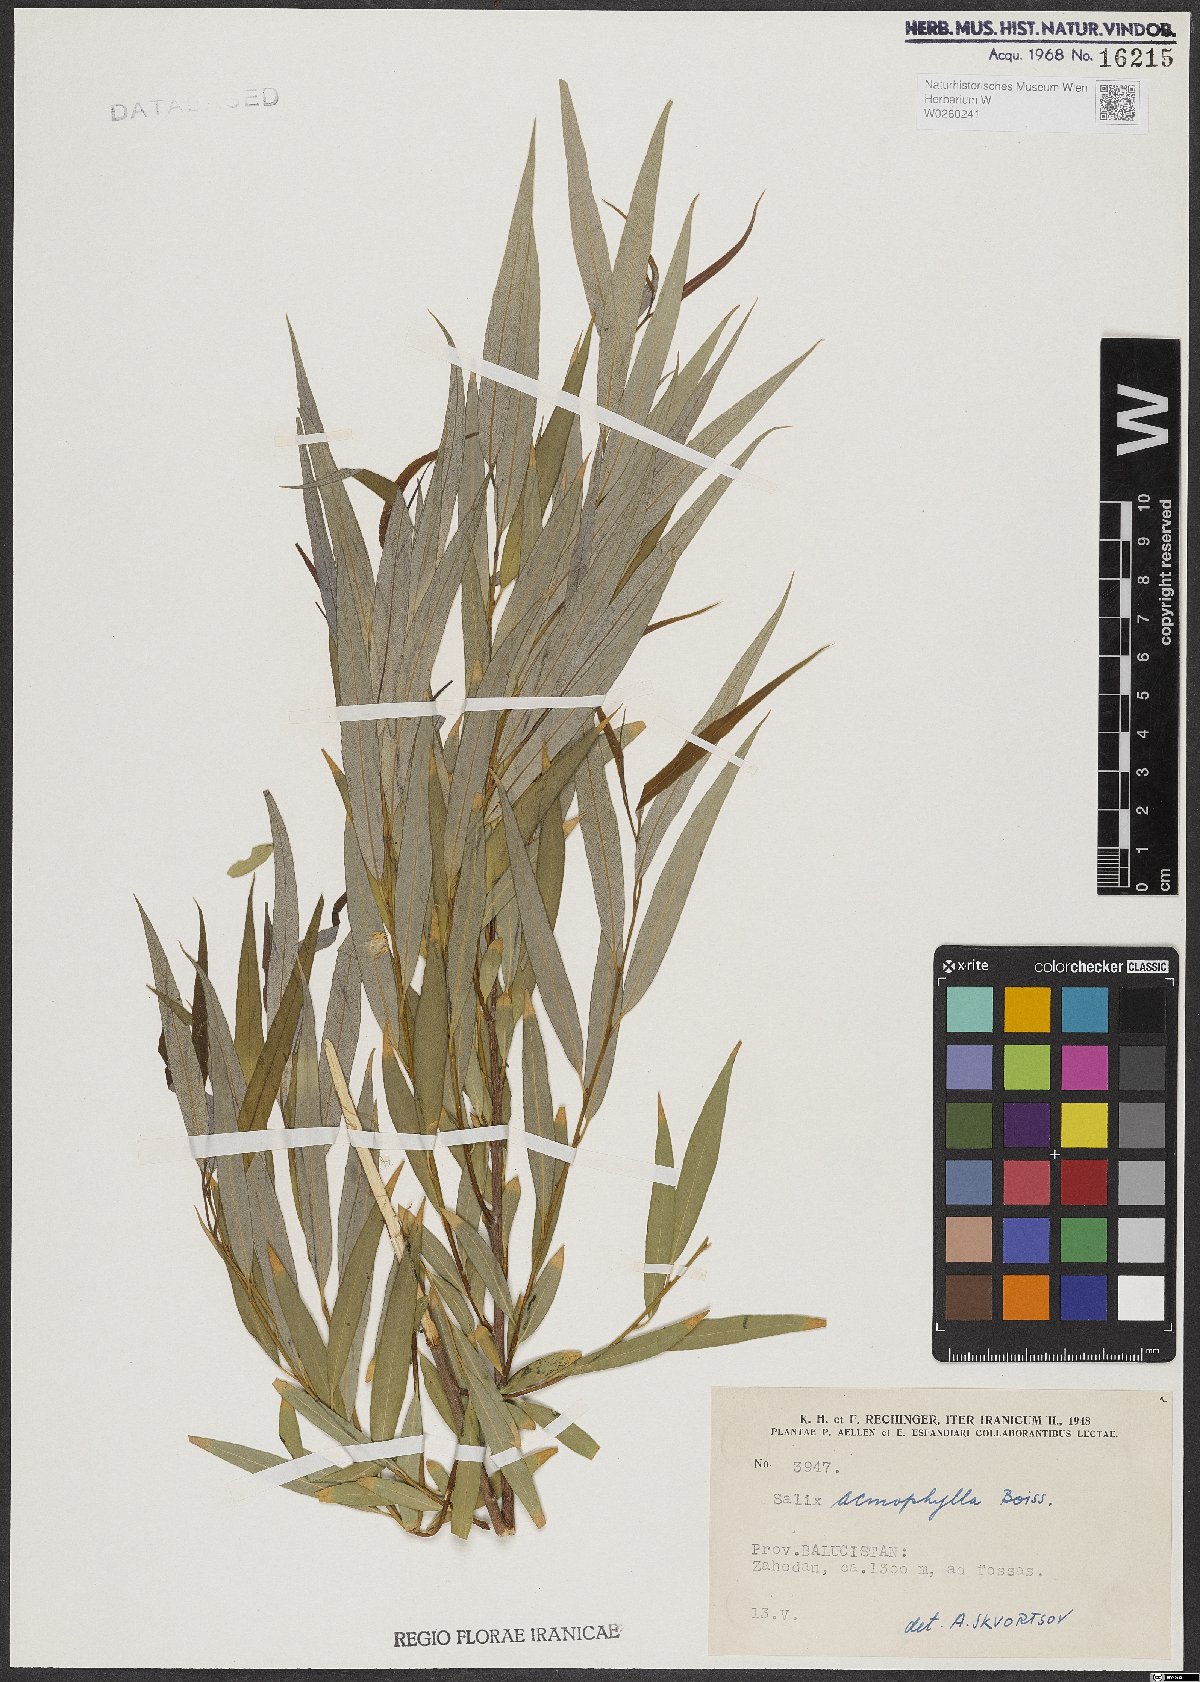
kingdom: Plantae
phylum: Tracheophyta
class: Magnoliopsida
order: Malpighiales
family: Salicaceae
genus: Salix
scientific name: Salix acmophylla
